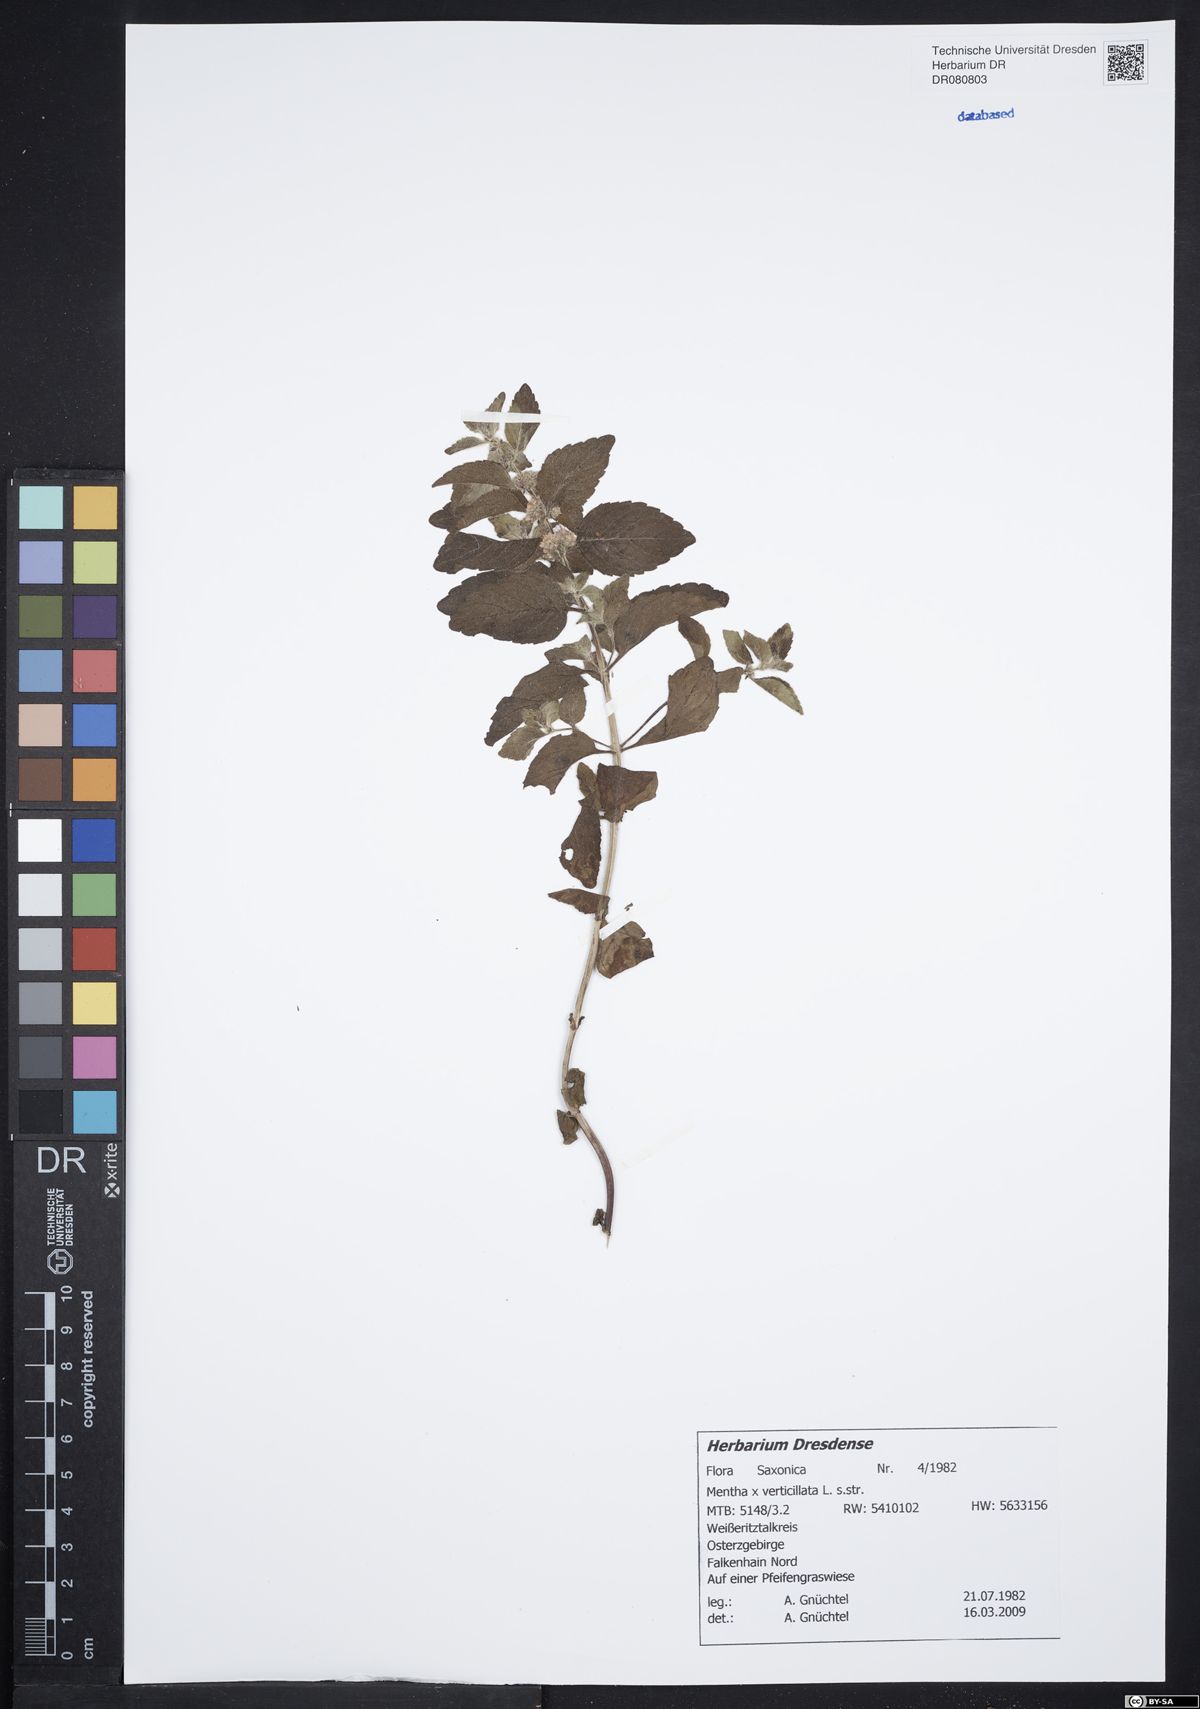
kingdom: Plantae
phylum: Tracheophyta
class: Magnoliopsida
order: Lamiales
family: Lamiaceae
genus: Mentha
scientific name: Mentha verticillata
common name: Mint
